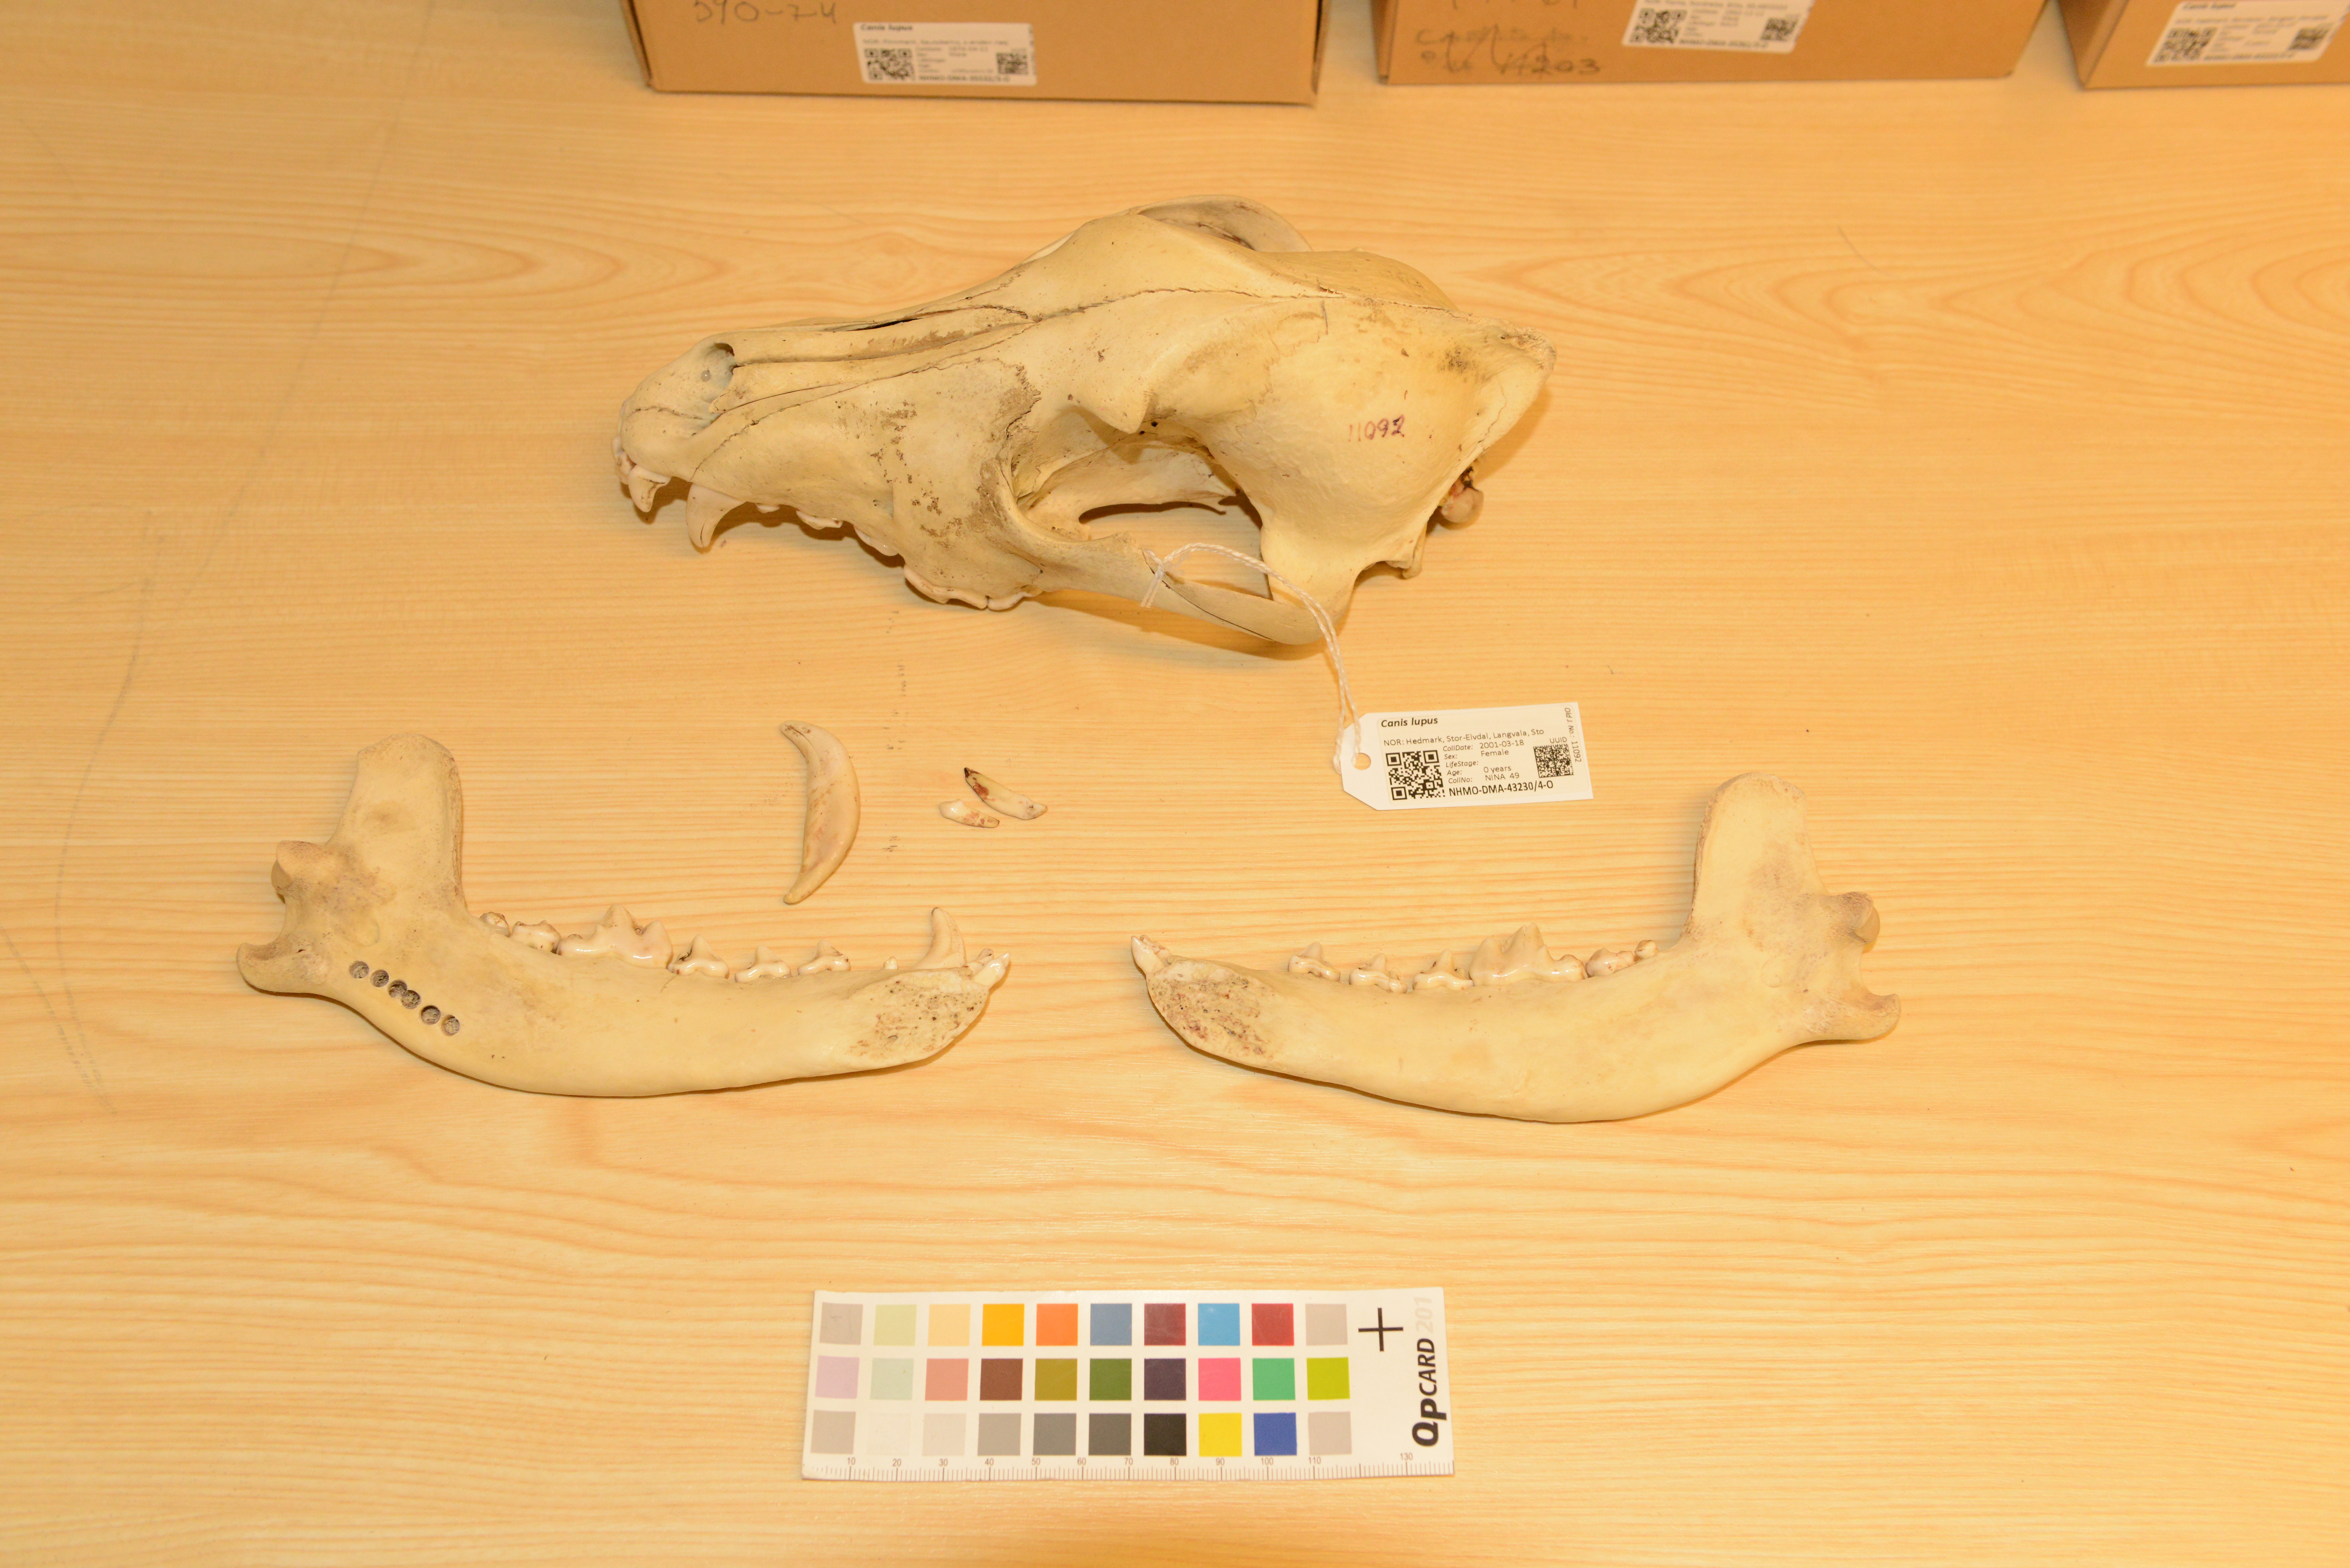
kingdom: Animalia
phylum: Chordata
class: Mammalia
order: Carnivora
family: Canidae
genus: Canis
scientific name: Canis lupus
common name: Gray wolf
